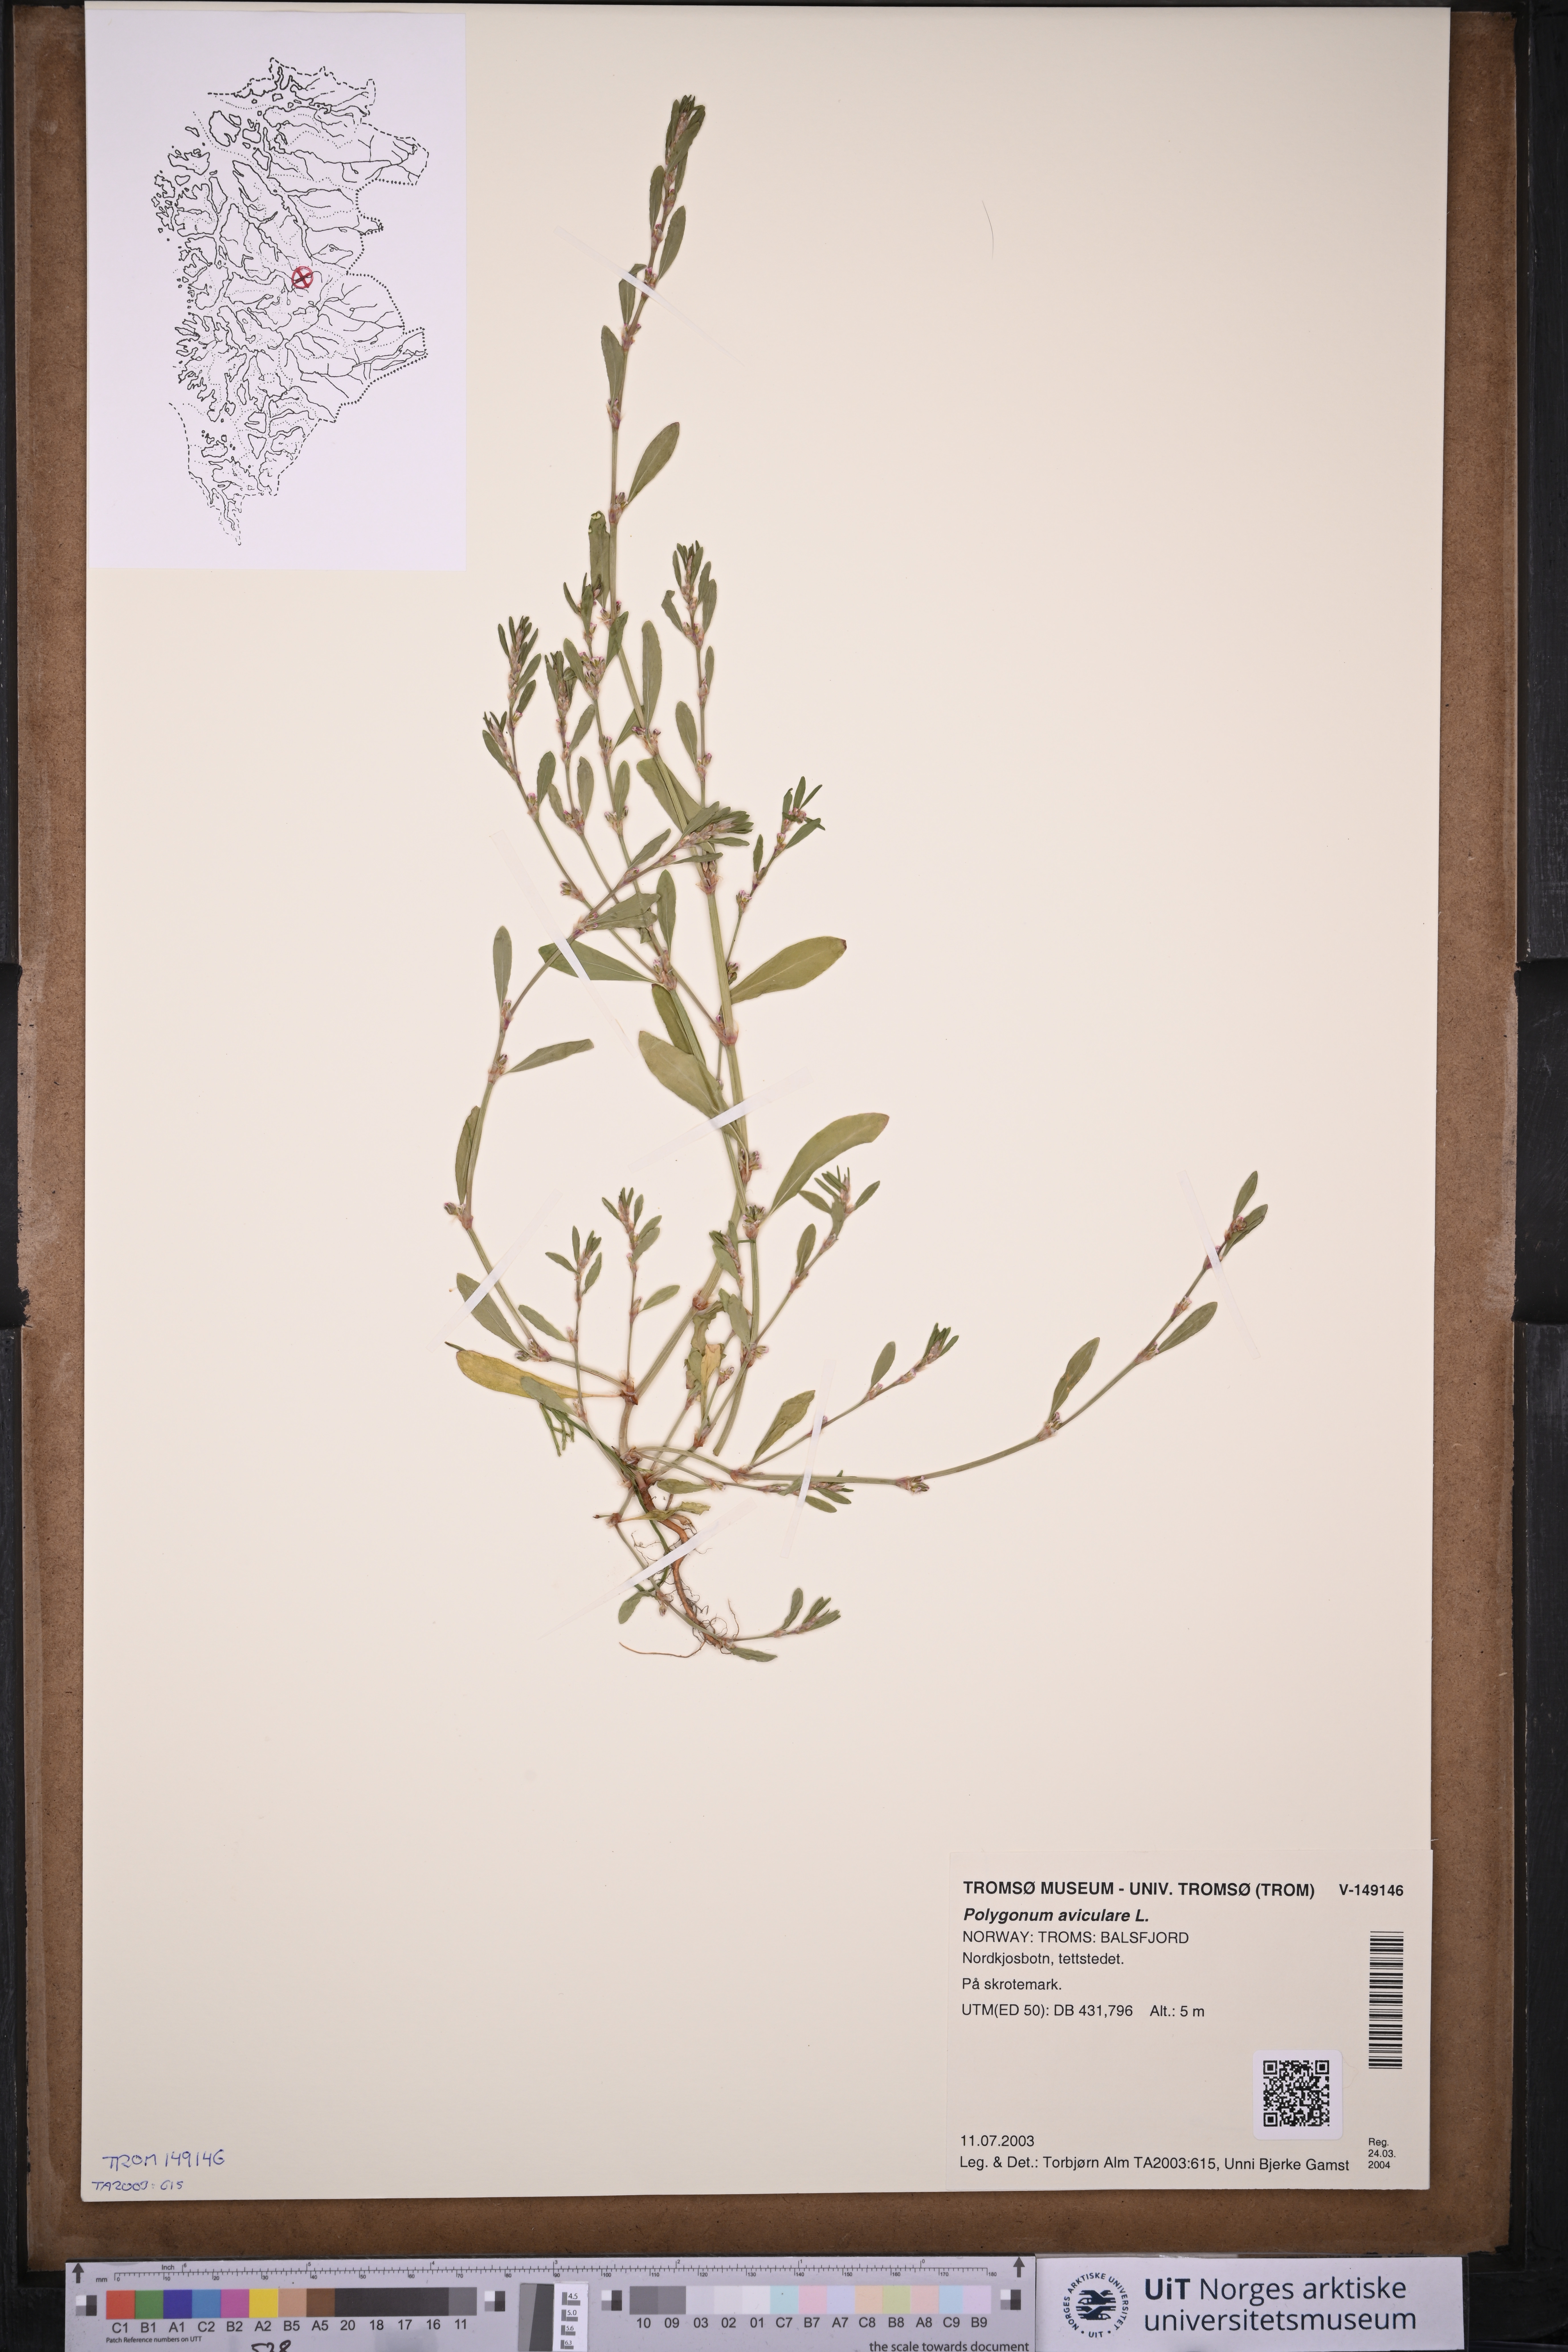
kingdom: Plantae
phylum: Tracheophyta
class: Magnoliopsida
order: Caryophyllales
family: Polygonaceae
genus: Polygonum
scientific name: Polygonum aviculare
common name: Prostrate knotweed
